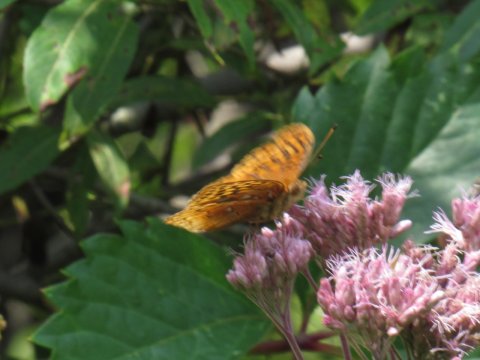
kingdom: Animalia
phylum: Arthropoda
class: Insecta
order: Lepidoptera
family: Nymphalidae
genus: Speyeria
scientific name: Speyeria cybele
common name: Great Spangled Fritillary
